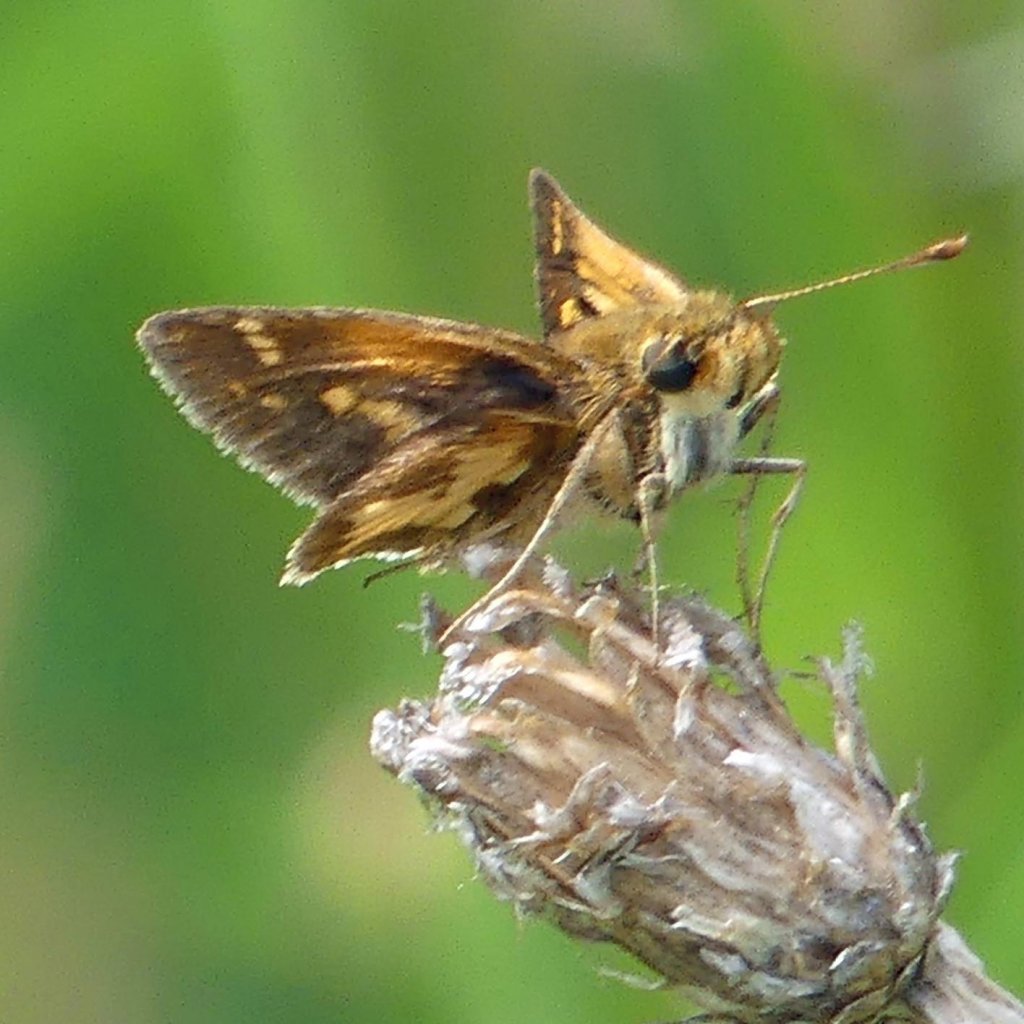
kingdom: Animalia
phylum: Arthropoda
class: Insecta
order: Lepidoptera
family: Hesperiidae
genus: Polites
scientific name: Polites coras
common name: Peck's Skipper
